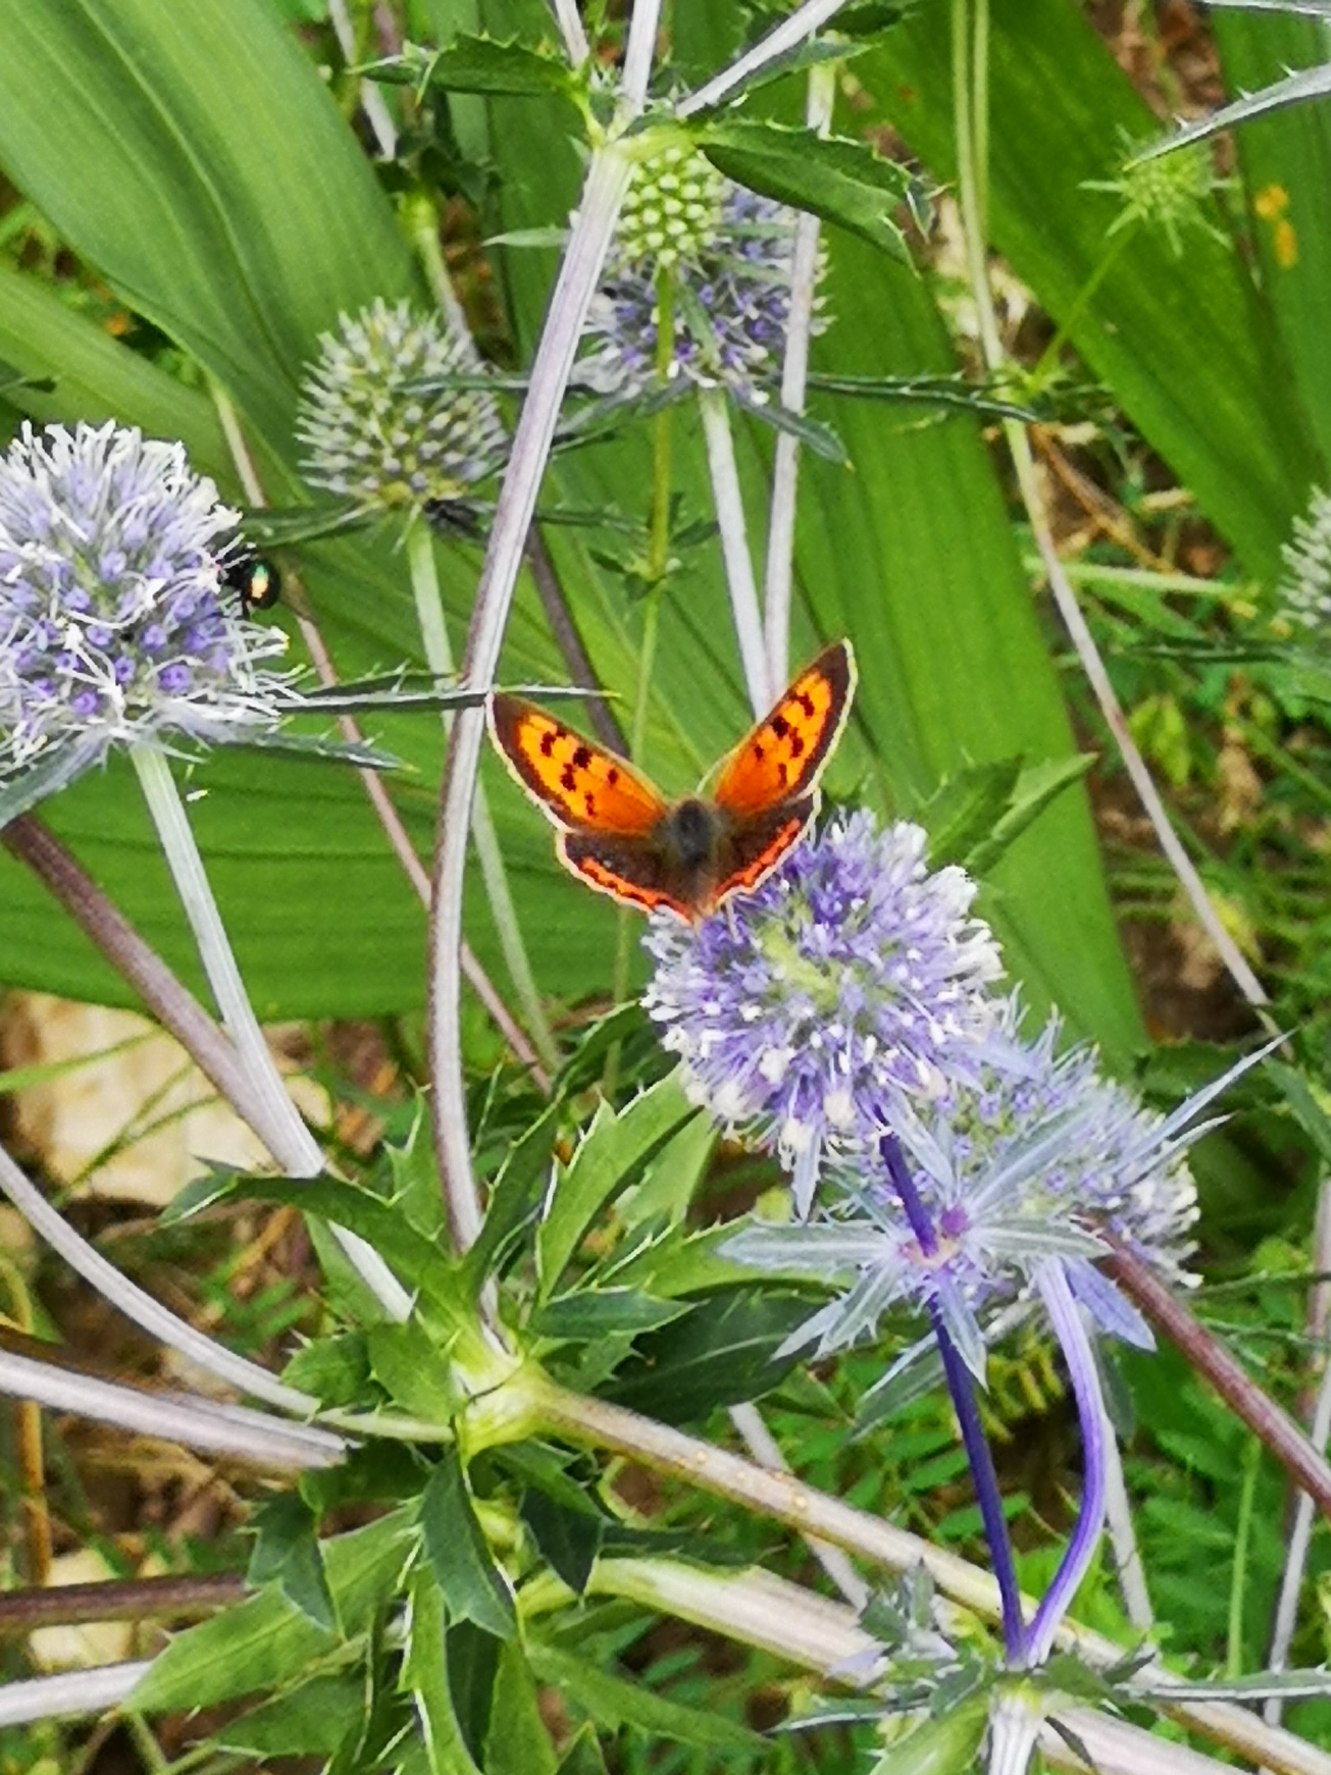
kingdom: Animalia
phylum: Arthropoda
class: Insecta
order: Lepidoptera
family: Lycaenidae
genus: Lycaena
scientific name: Lycaena phlaeas
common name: Lille ildfugl
